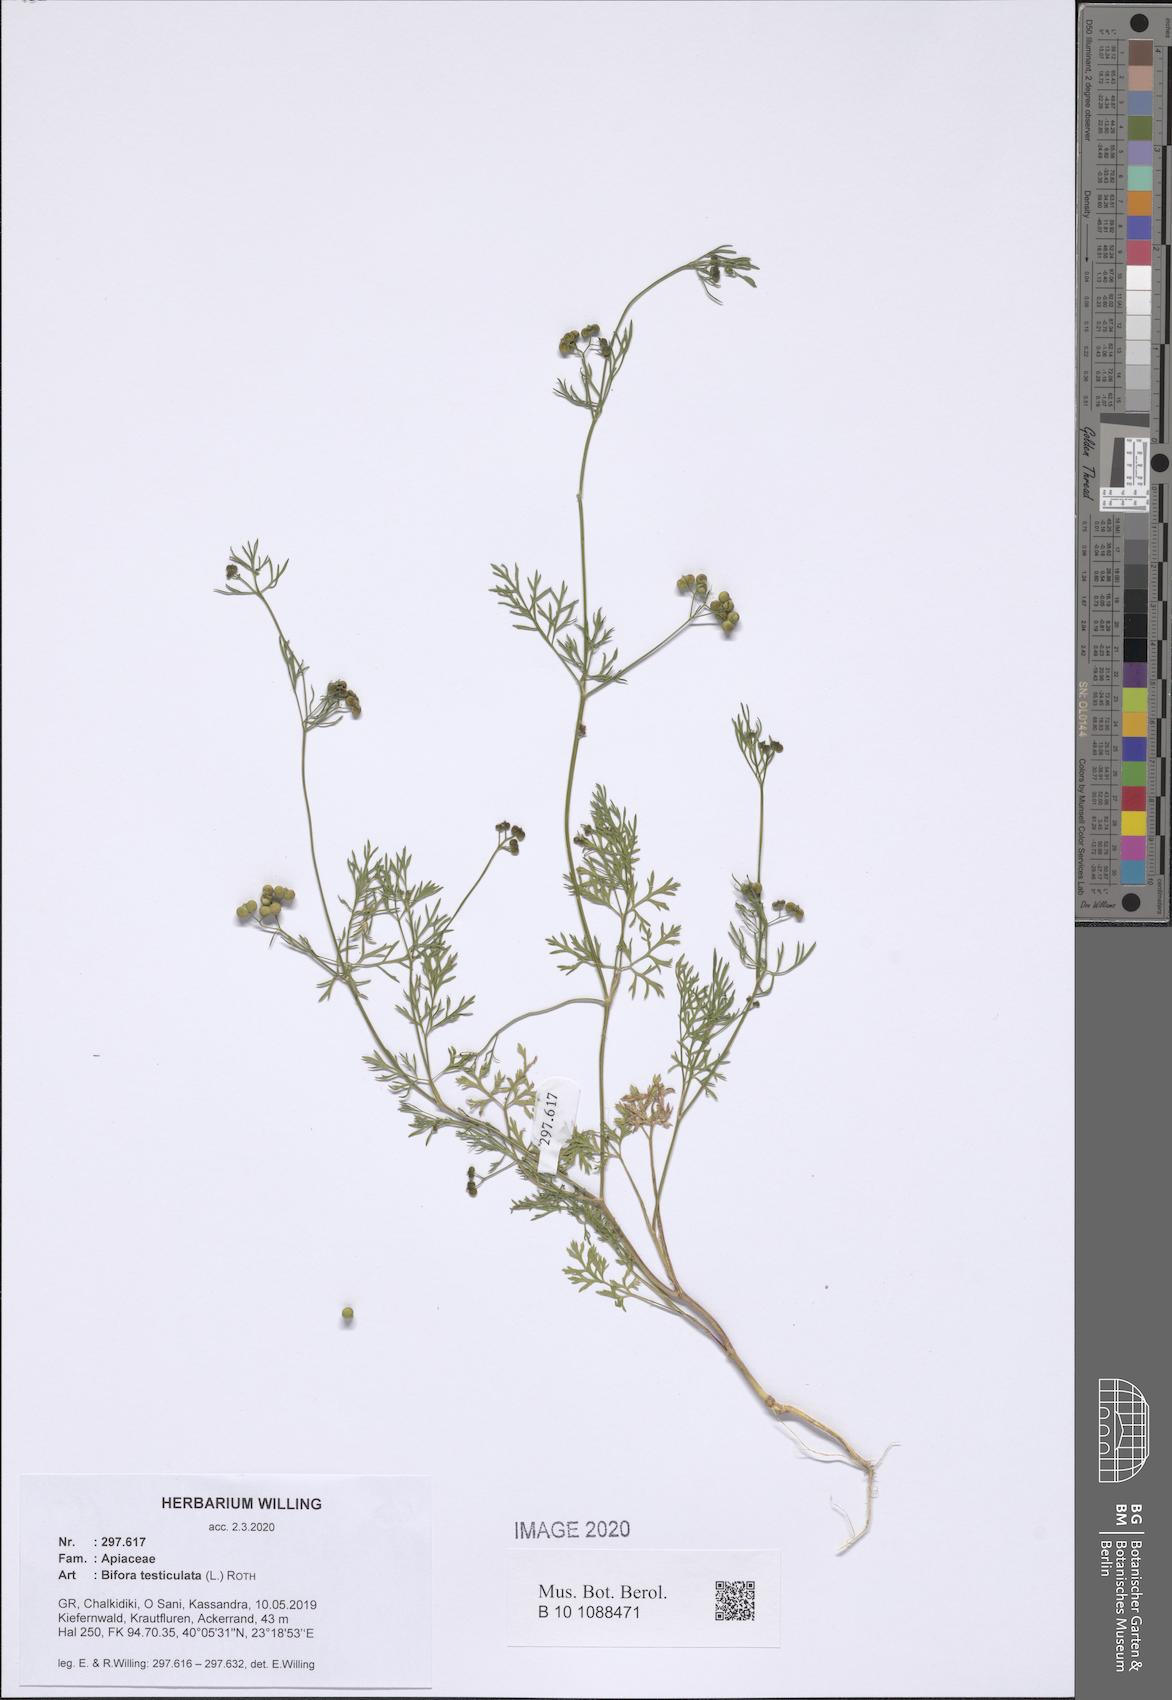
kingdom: Plantae
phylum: Tracheophyta
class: Magnoliopsida
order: Apiales
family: Apiaceae
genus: Bifora
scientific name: Bifora testiculata
